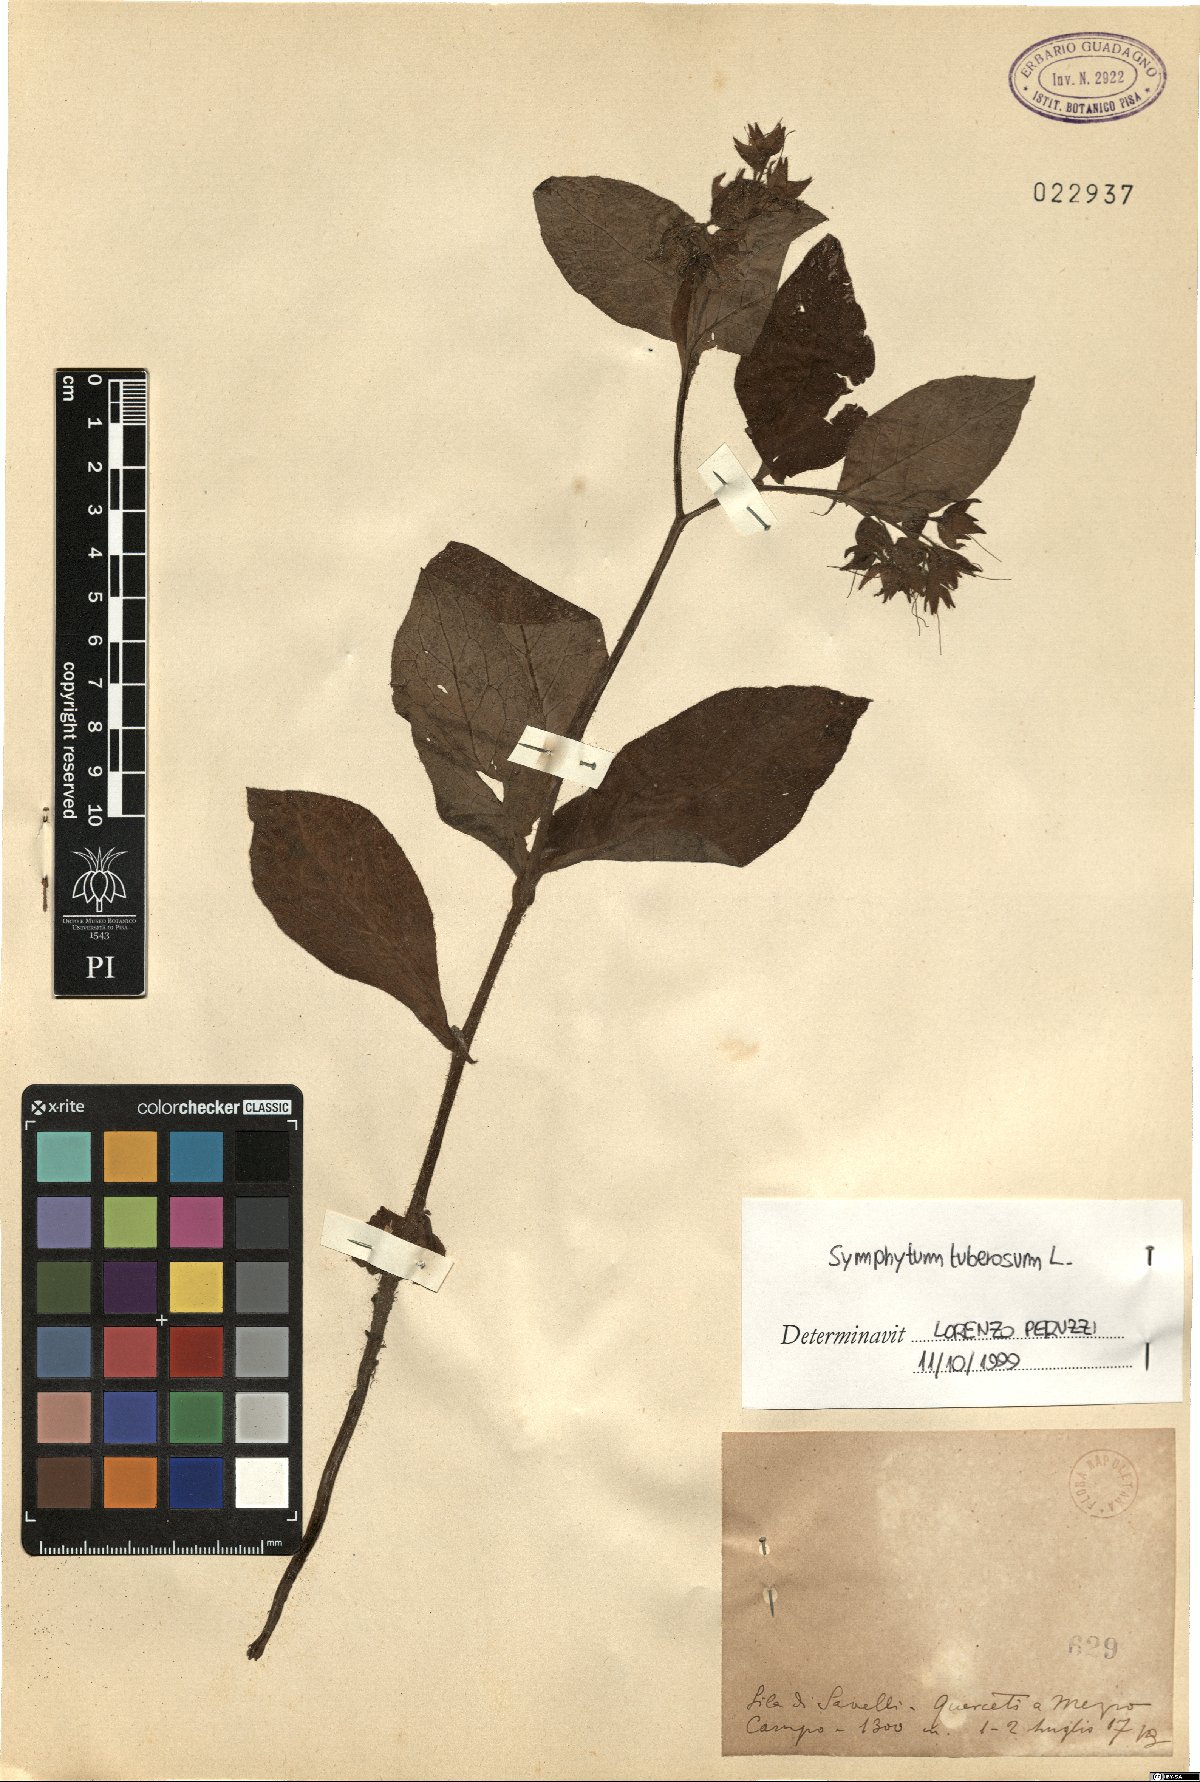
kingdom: Plantae
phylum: Tracheophyta
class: Magnoliopsida
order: Boraginales
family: Boraginaceae
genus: Symphytum
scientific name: Symphytum tuberosum
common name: Tuberous comfrey
